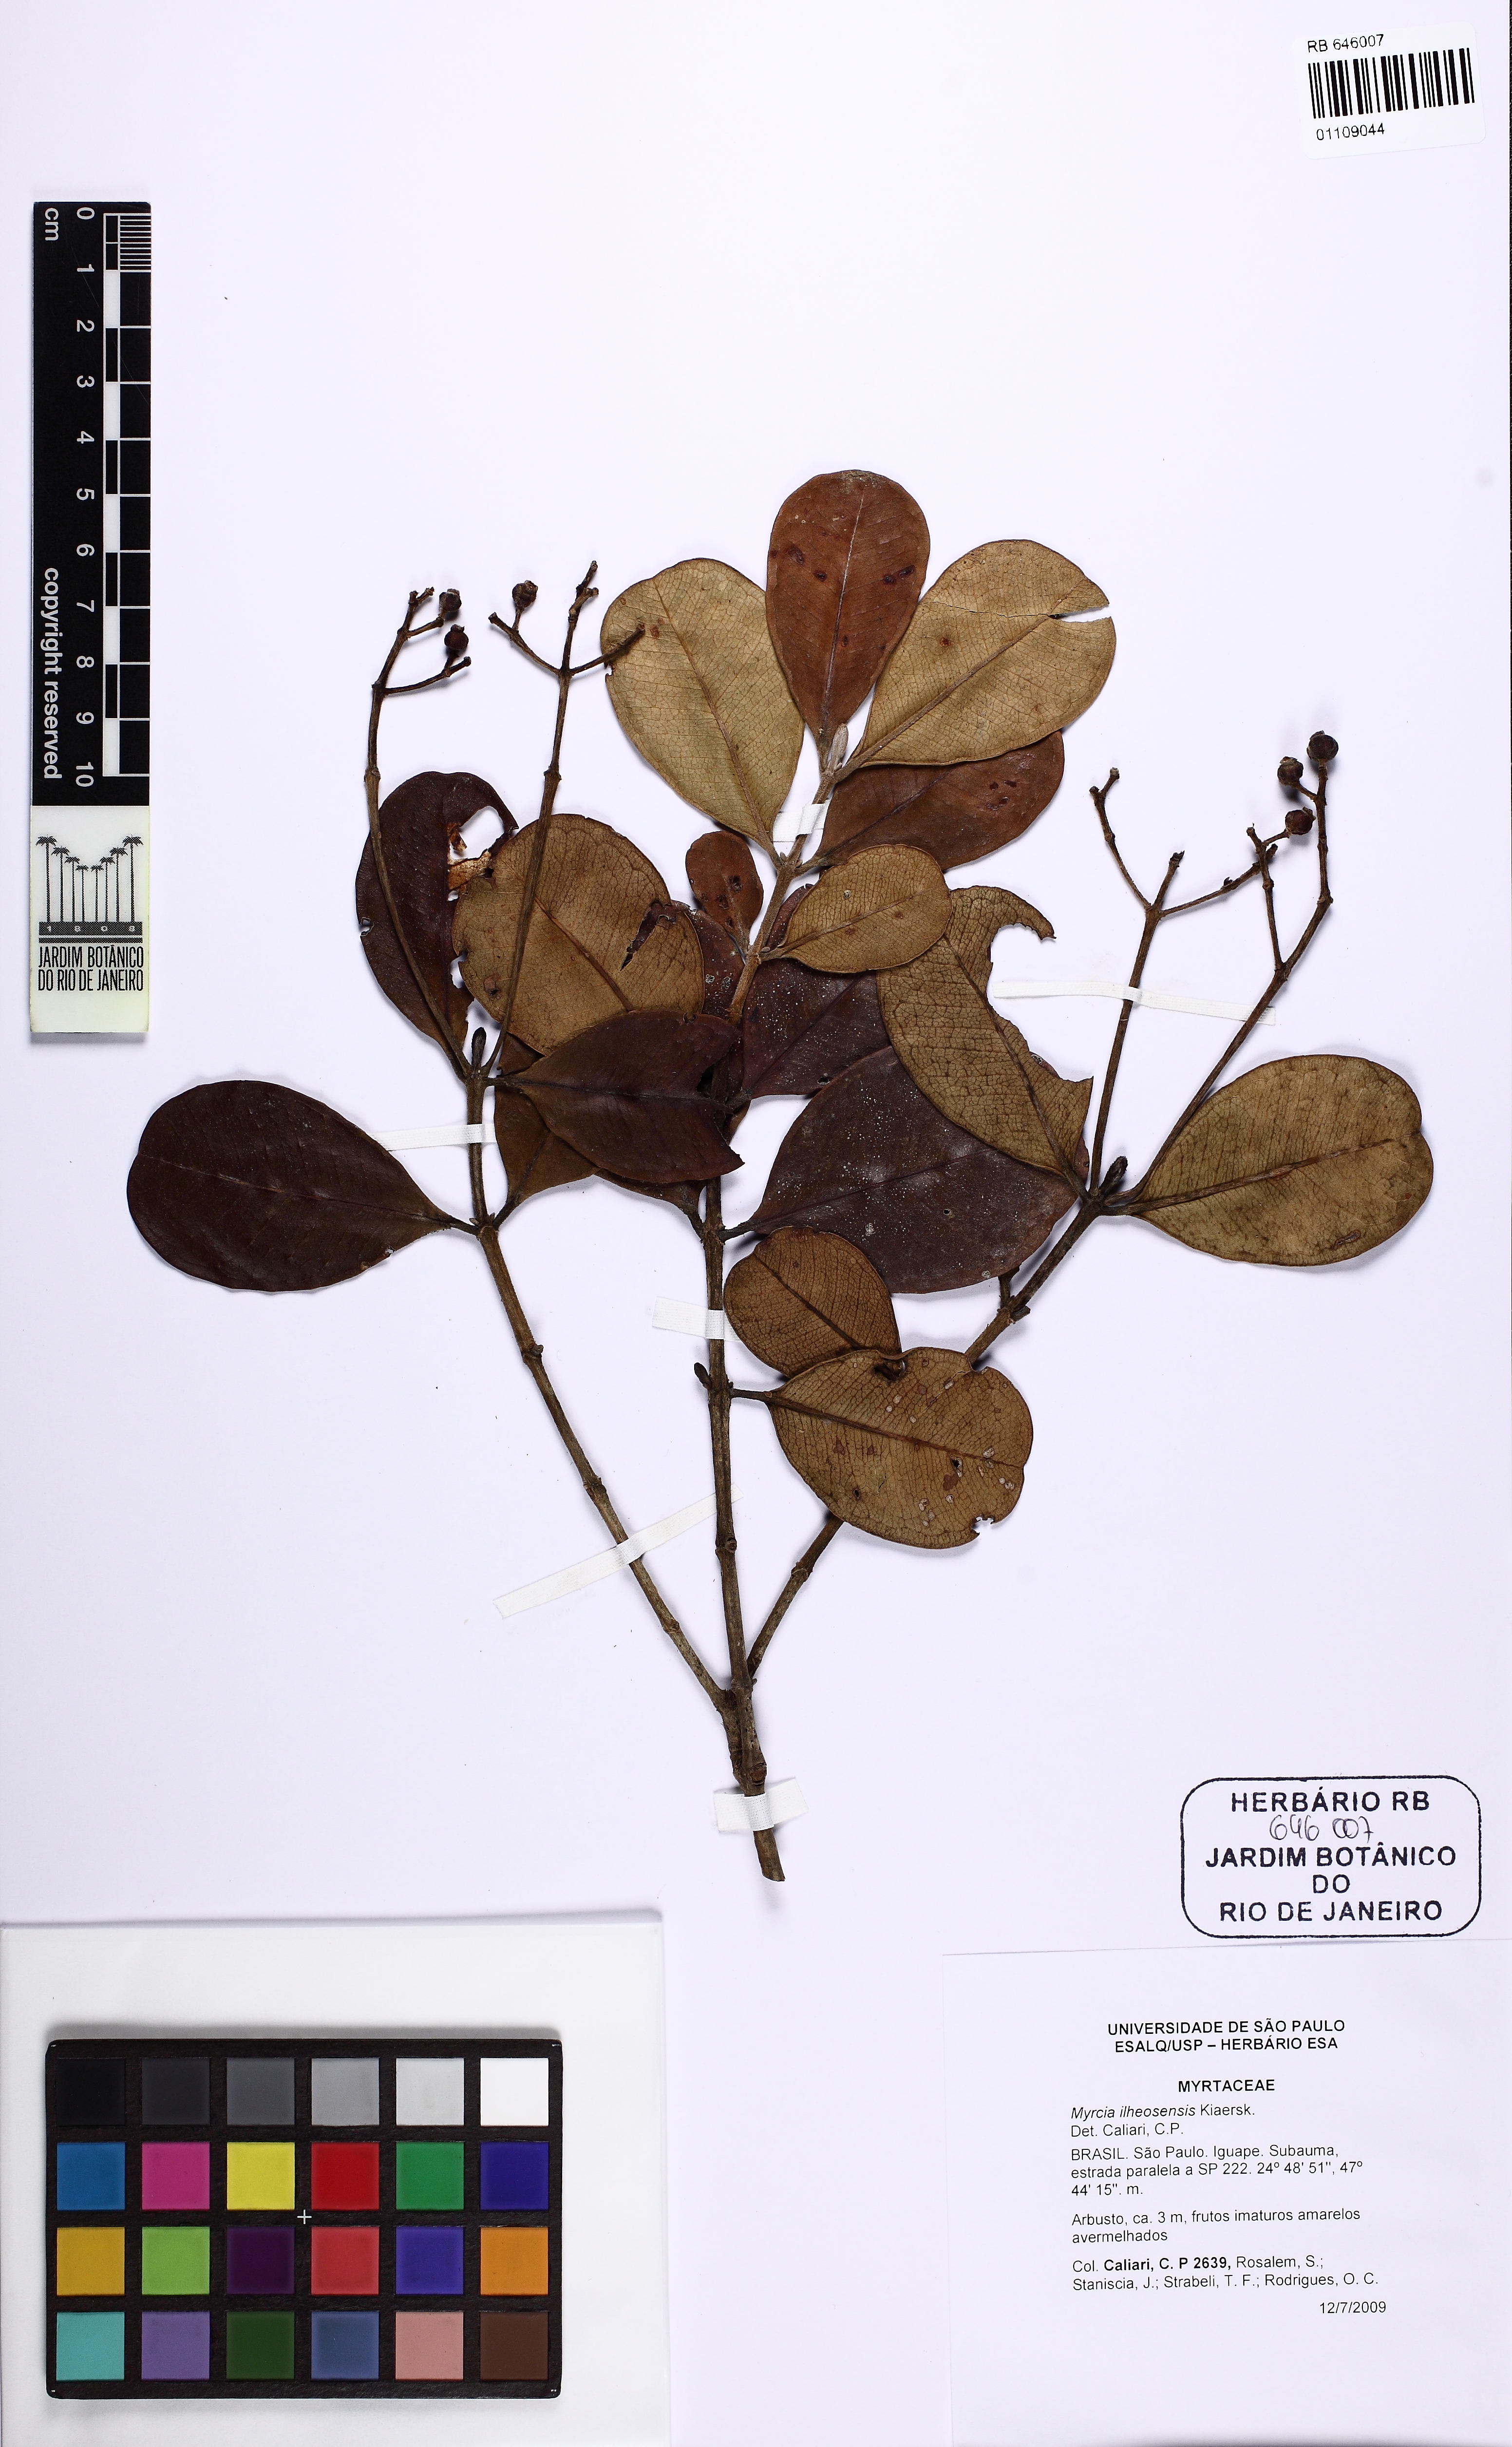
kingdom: Plantae
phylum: Tracheophyta
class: Magnoliopsida
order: Myrtales
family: Myrtaceae
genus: Myrcia
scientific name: Myrcia ilheosensis
